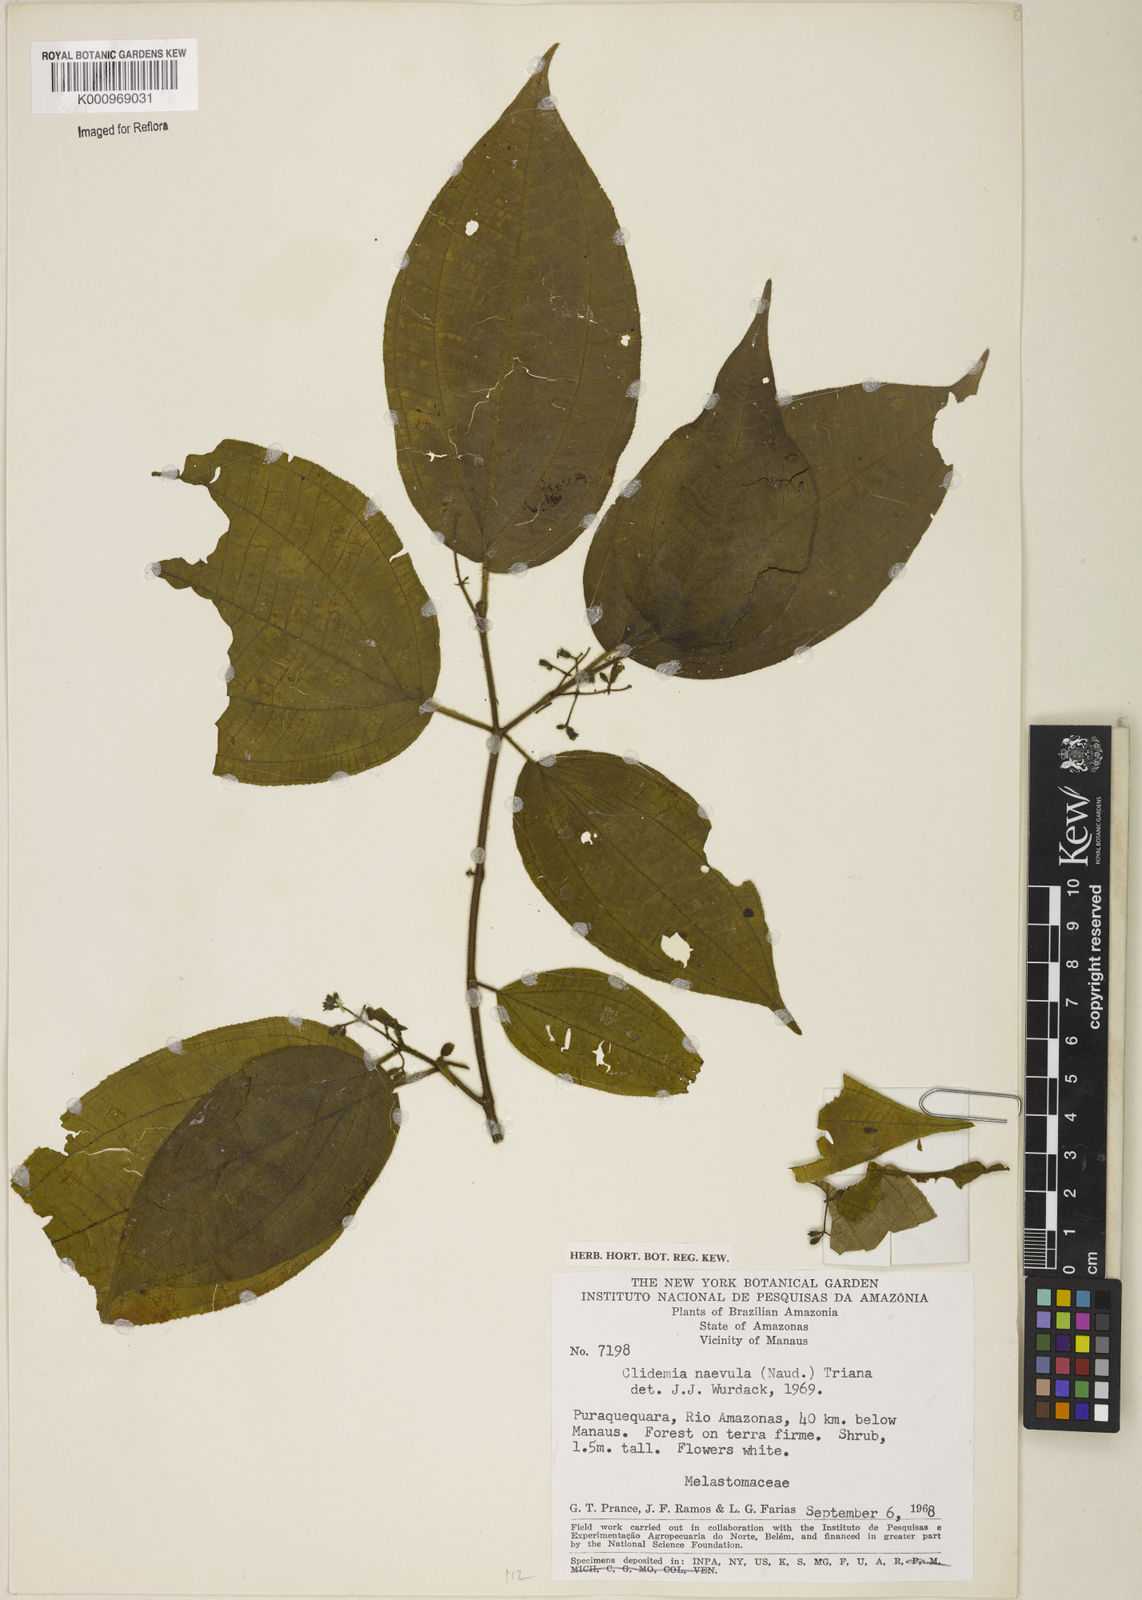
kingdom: Plantae
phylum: Tracheophyta
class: Magnoliopsida
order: Myrtales
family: Melastomataceae
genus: Miconia
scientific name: Miconia heteroclita
